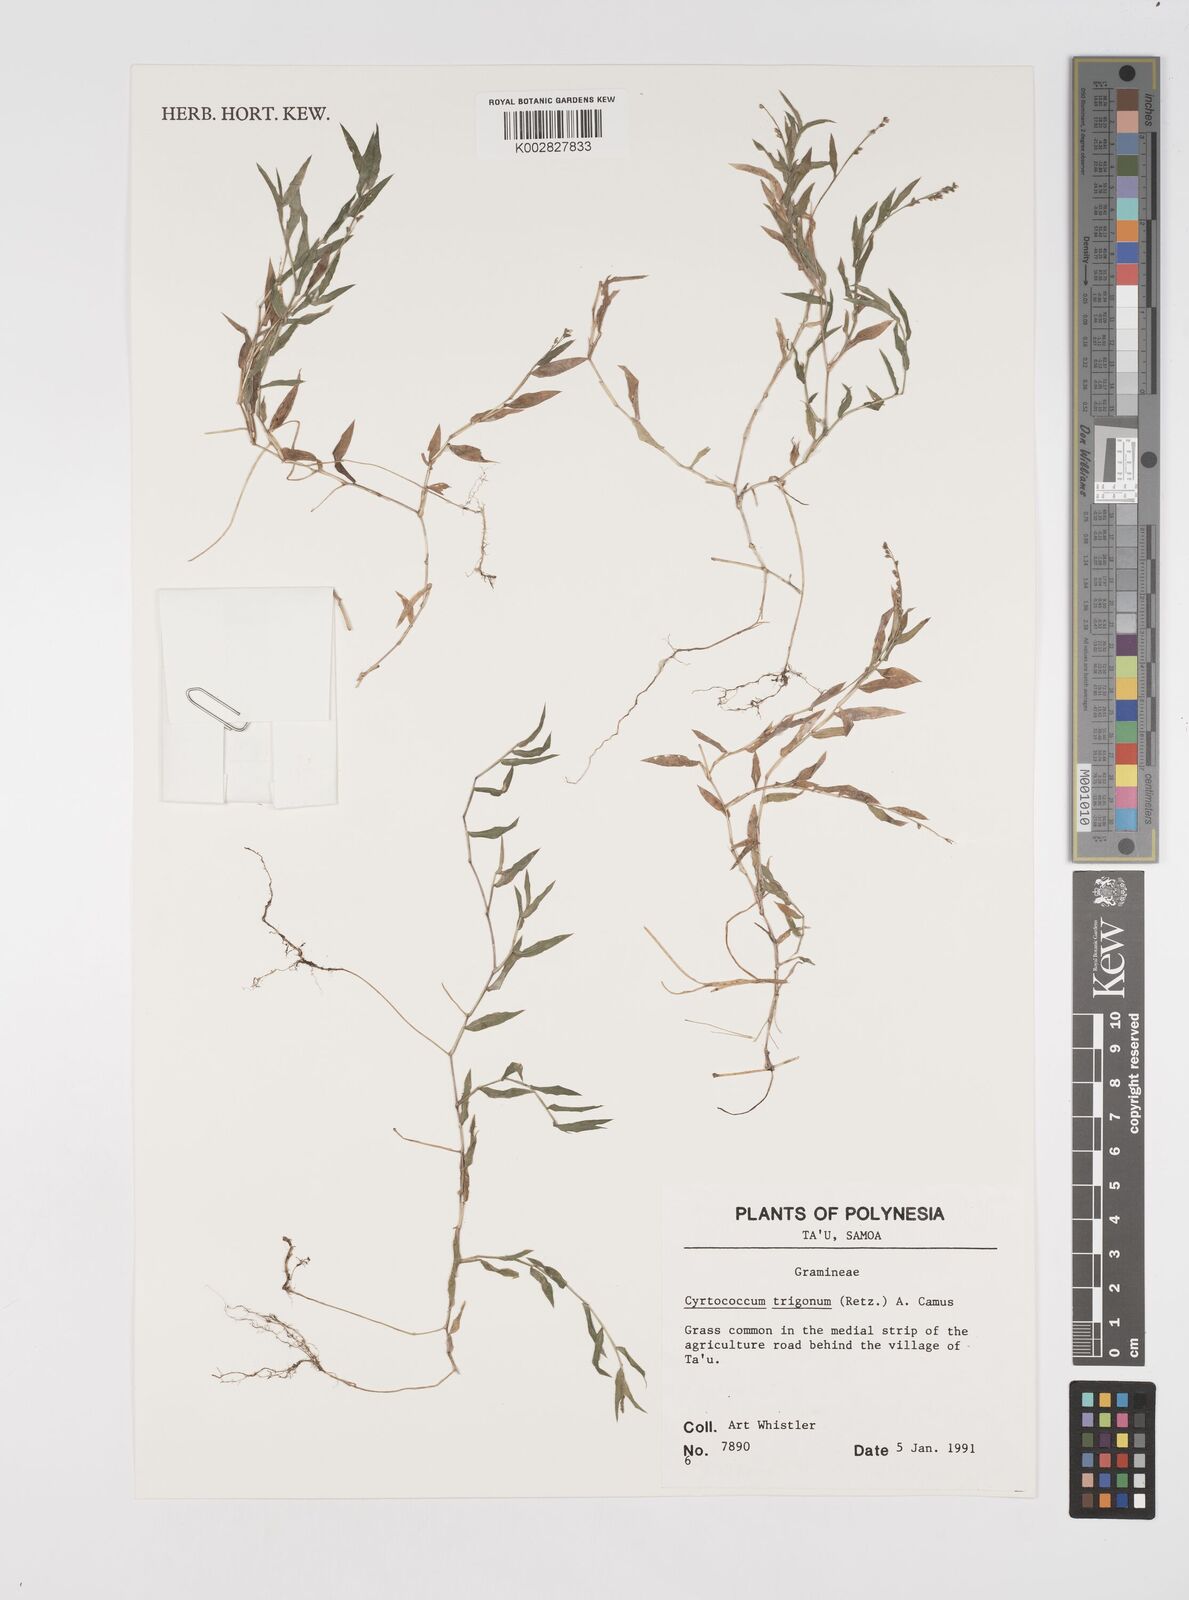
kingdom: Plantae
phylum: Tracheophyta
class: Liliopsida
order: Poales
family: Poaceae
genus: Cyrtococcum
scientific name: Cyrtococcum trigonum
